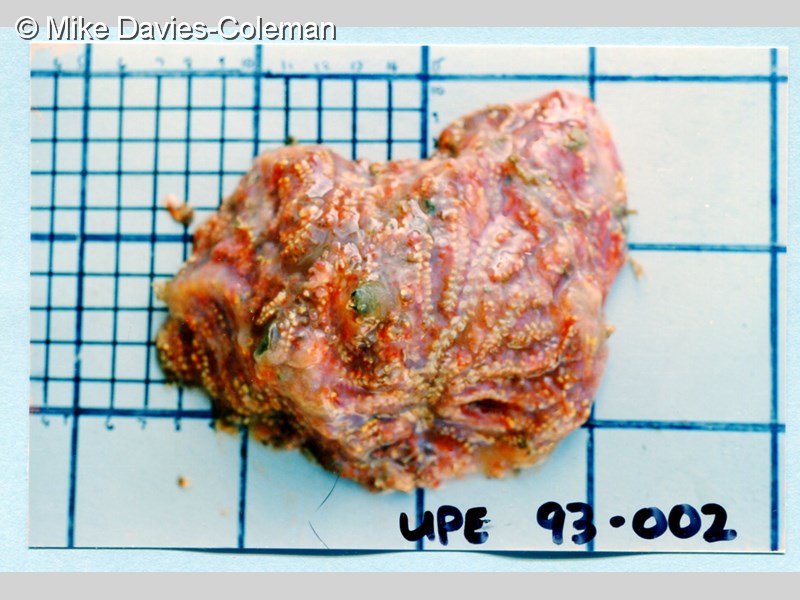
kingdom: Animalia
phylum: Chordata
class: Ascidiacea
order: Aplousobranchia
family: Holozoidae
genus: Sycozoa
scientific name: Sycozoa
